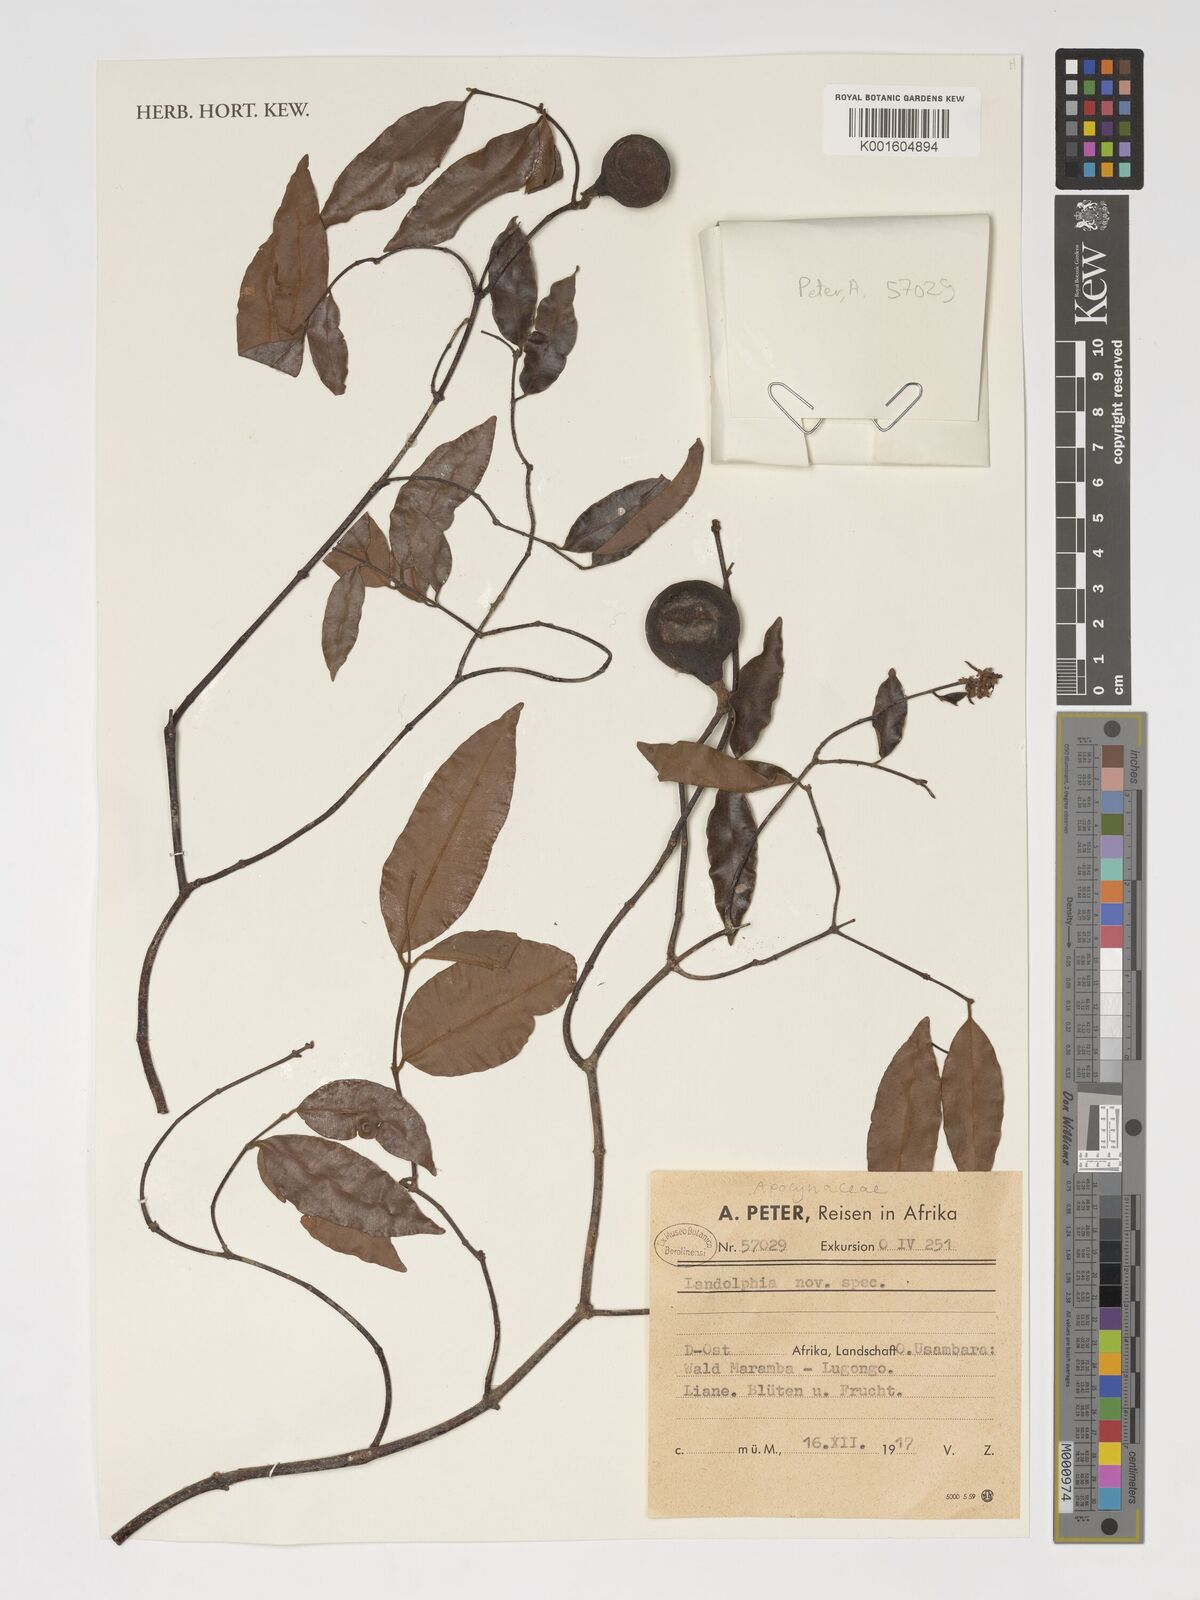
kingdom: Plantae
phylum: Tracheophyta
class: Magnoliopsida
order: Gentianales
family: Apocynaceae
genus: Landolphia
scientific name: Landolphia
